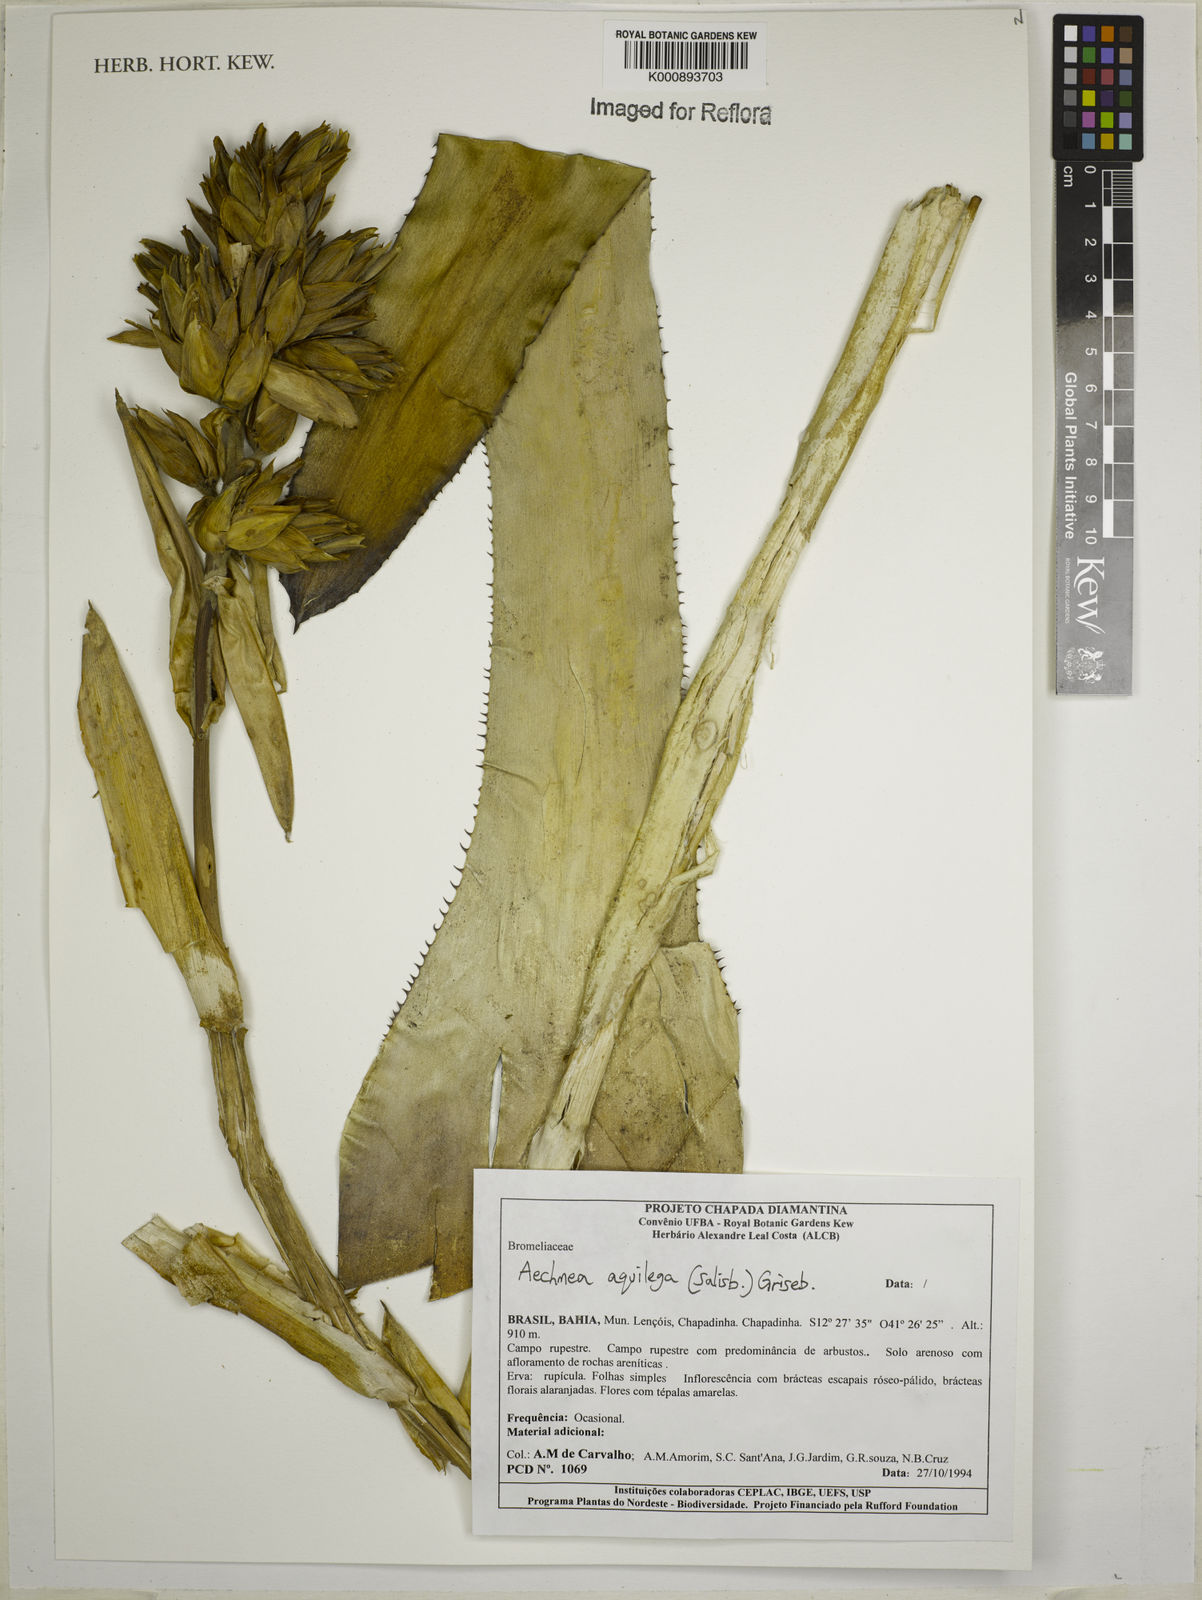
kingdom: Plantae
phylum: Tracheophyta
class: Liliopsida
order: Poales
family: Bromeliaceae
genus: Aechmea
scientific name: Aechmea aquilega
